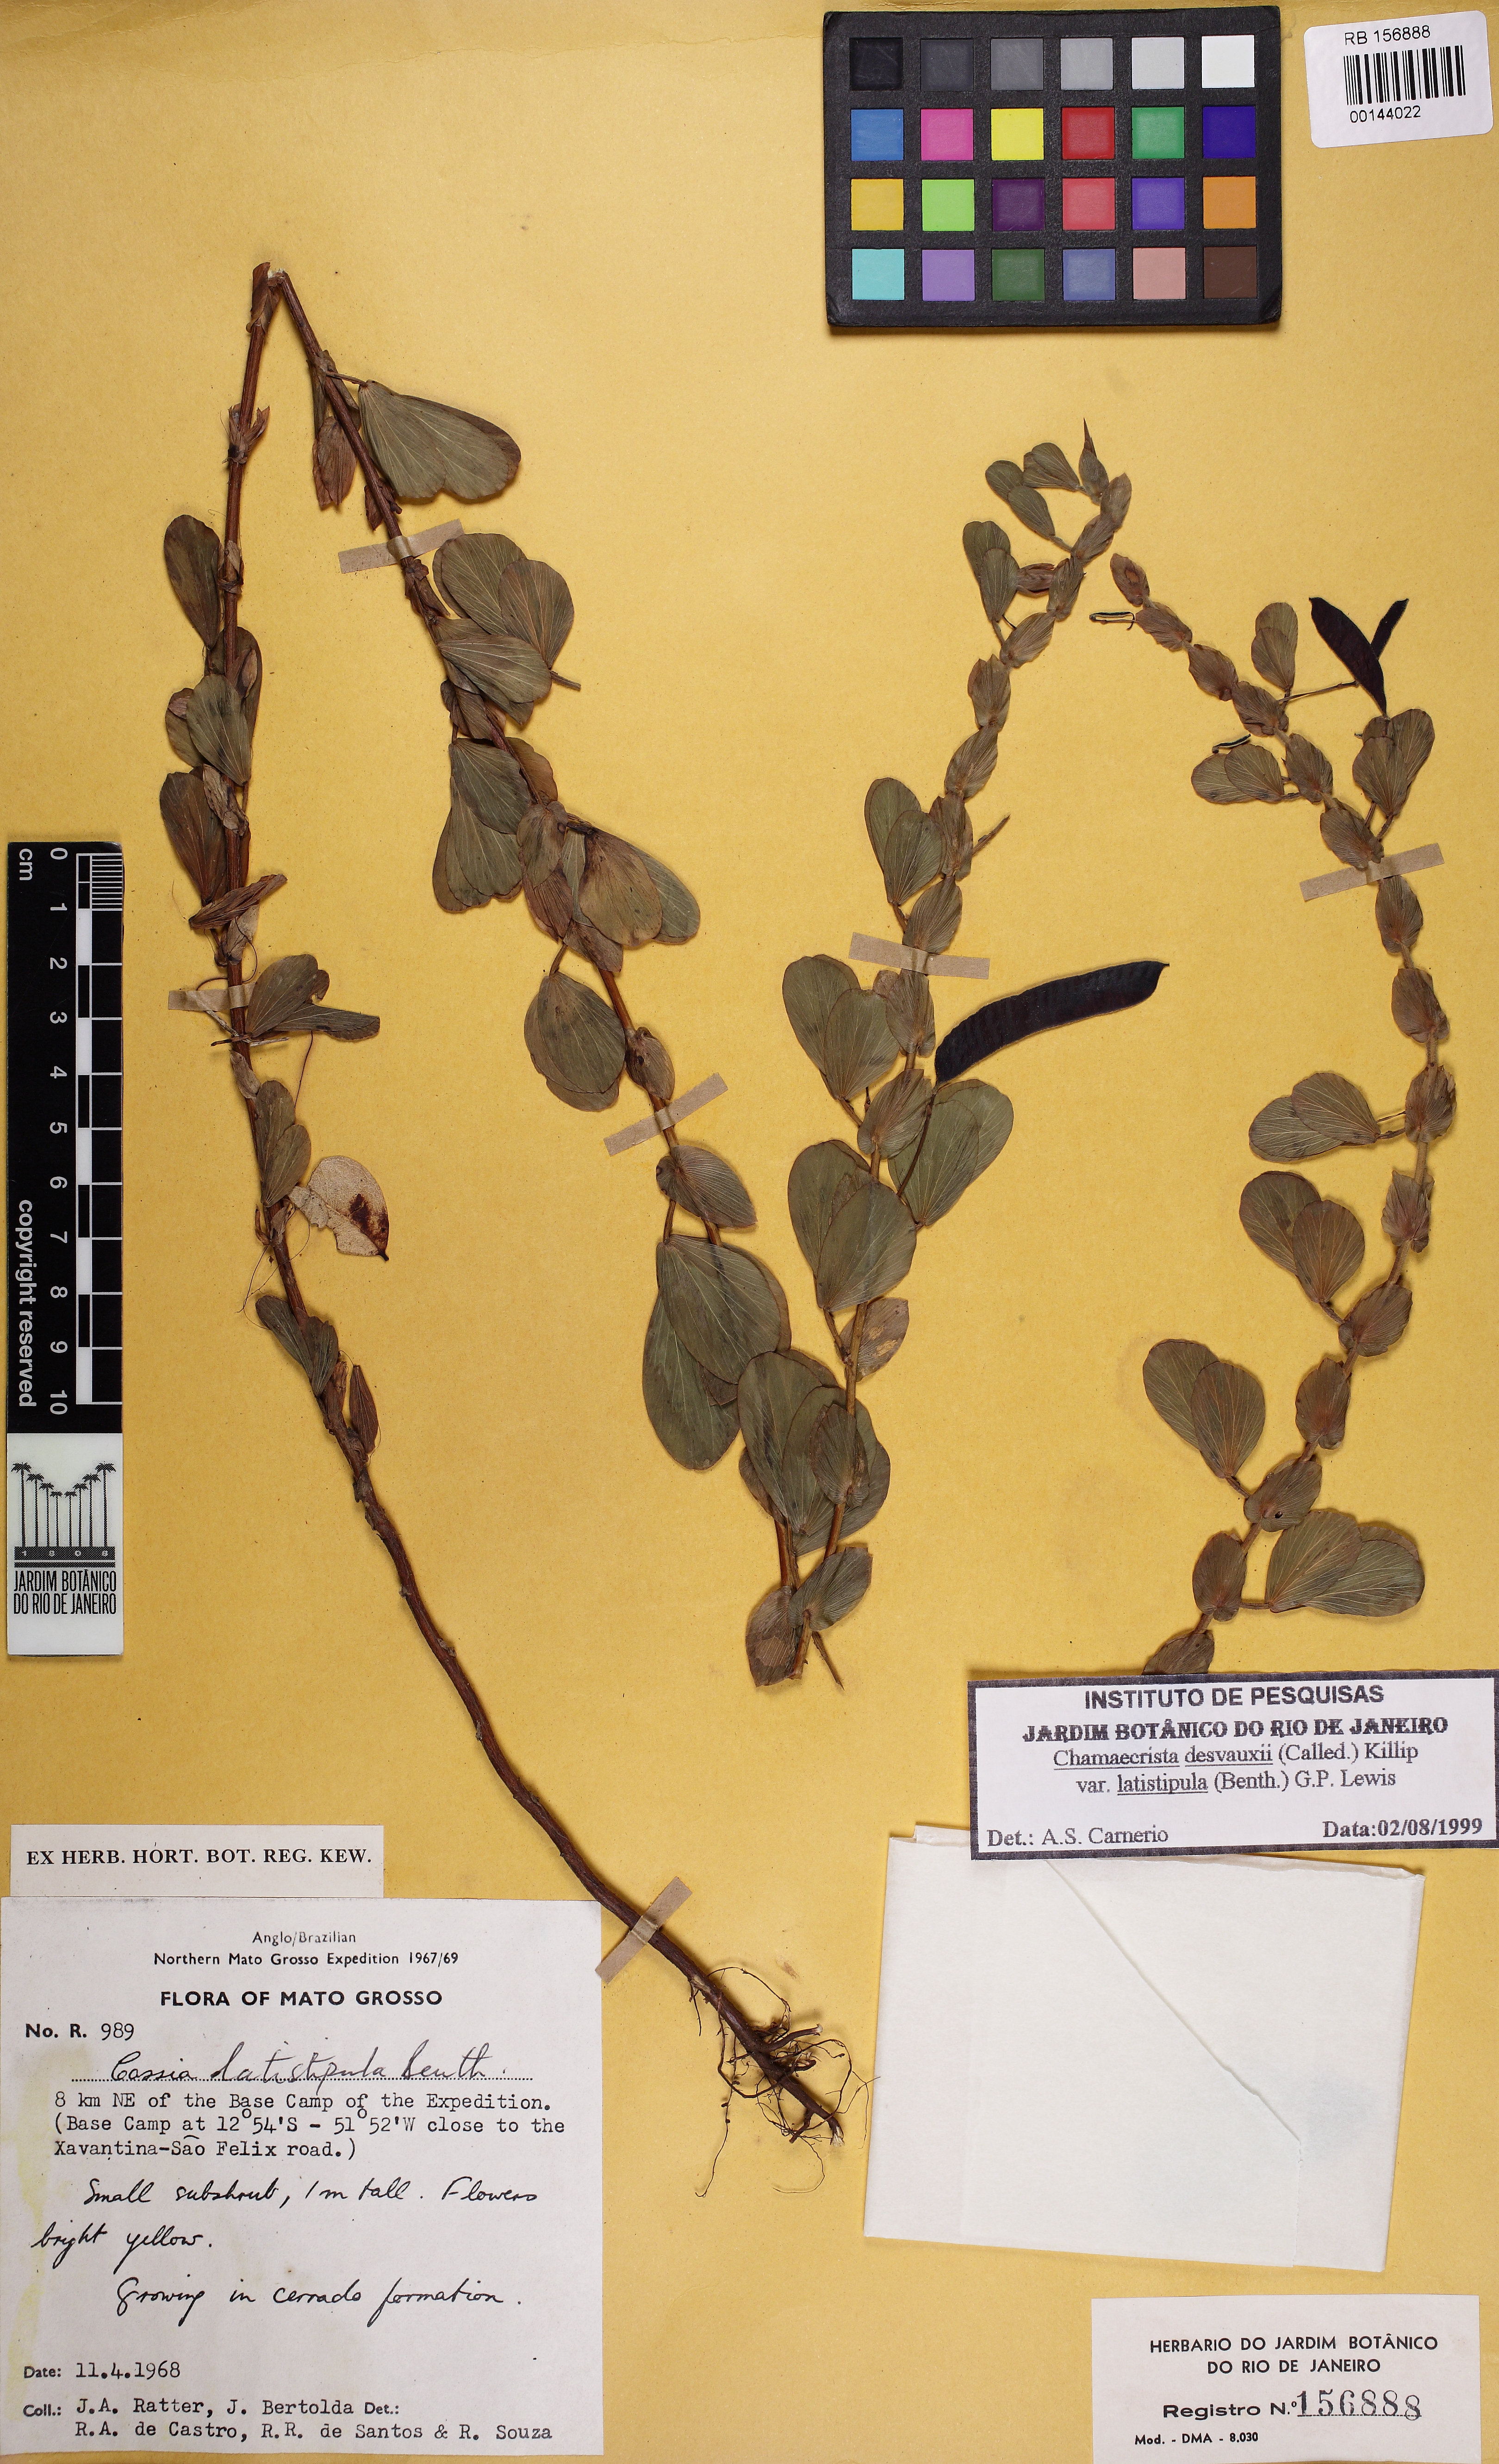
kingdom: Plantae
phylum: Tracheophyta
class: Magnoliopsida
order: Fabales
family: Fabaceae
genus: Chamaecrista
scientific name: Chamaecrista desvauxii
